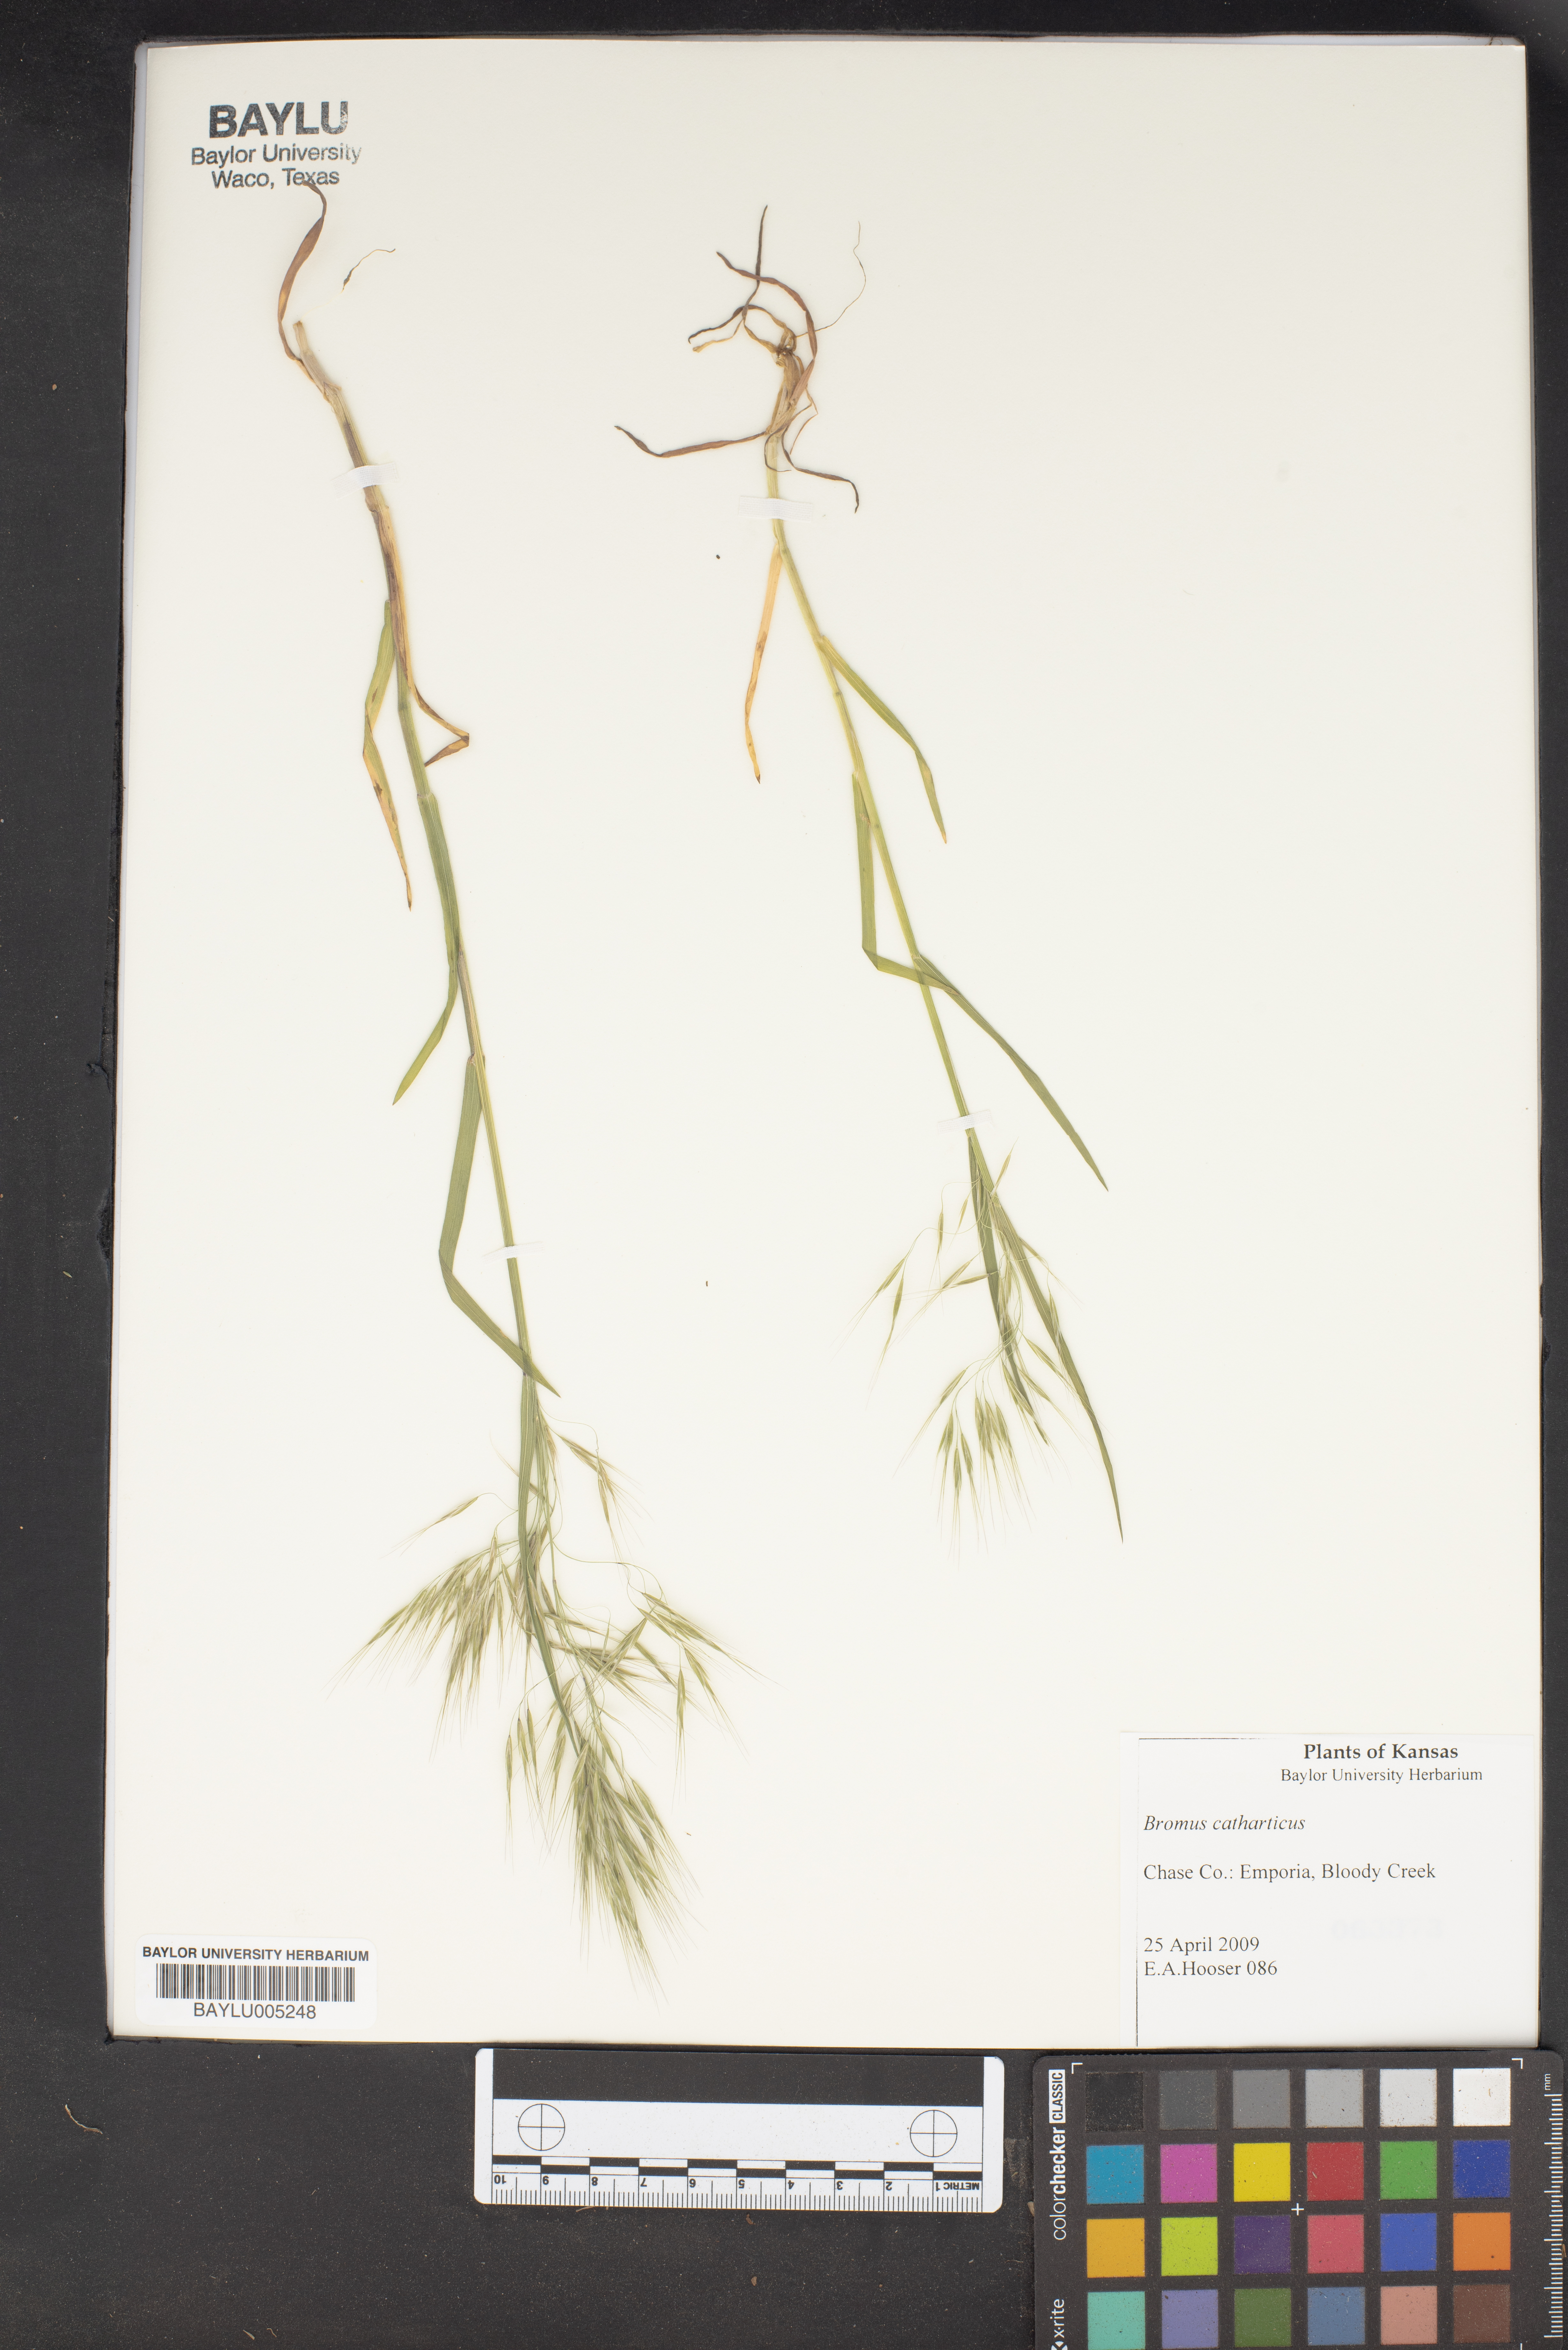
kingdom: Plantae
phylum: Tracheophyta
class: Liliopsida
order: Poales
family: Poaceae
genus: Bromus
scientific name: Bromus catharticus
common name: Rescuegrass
